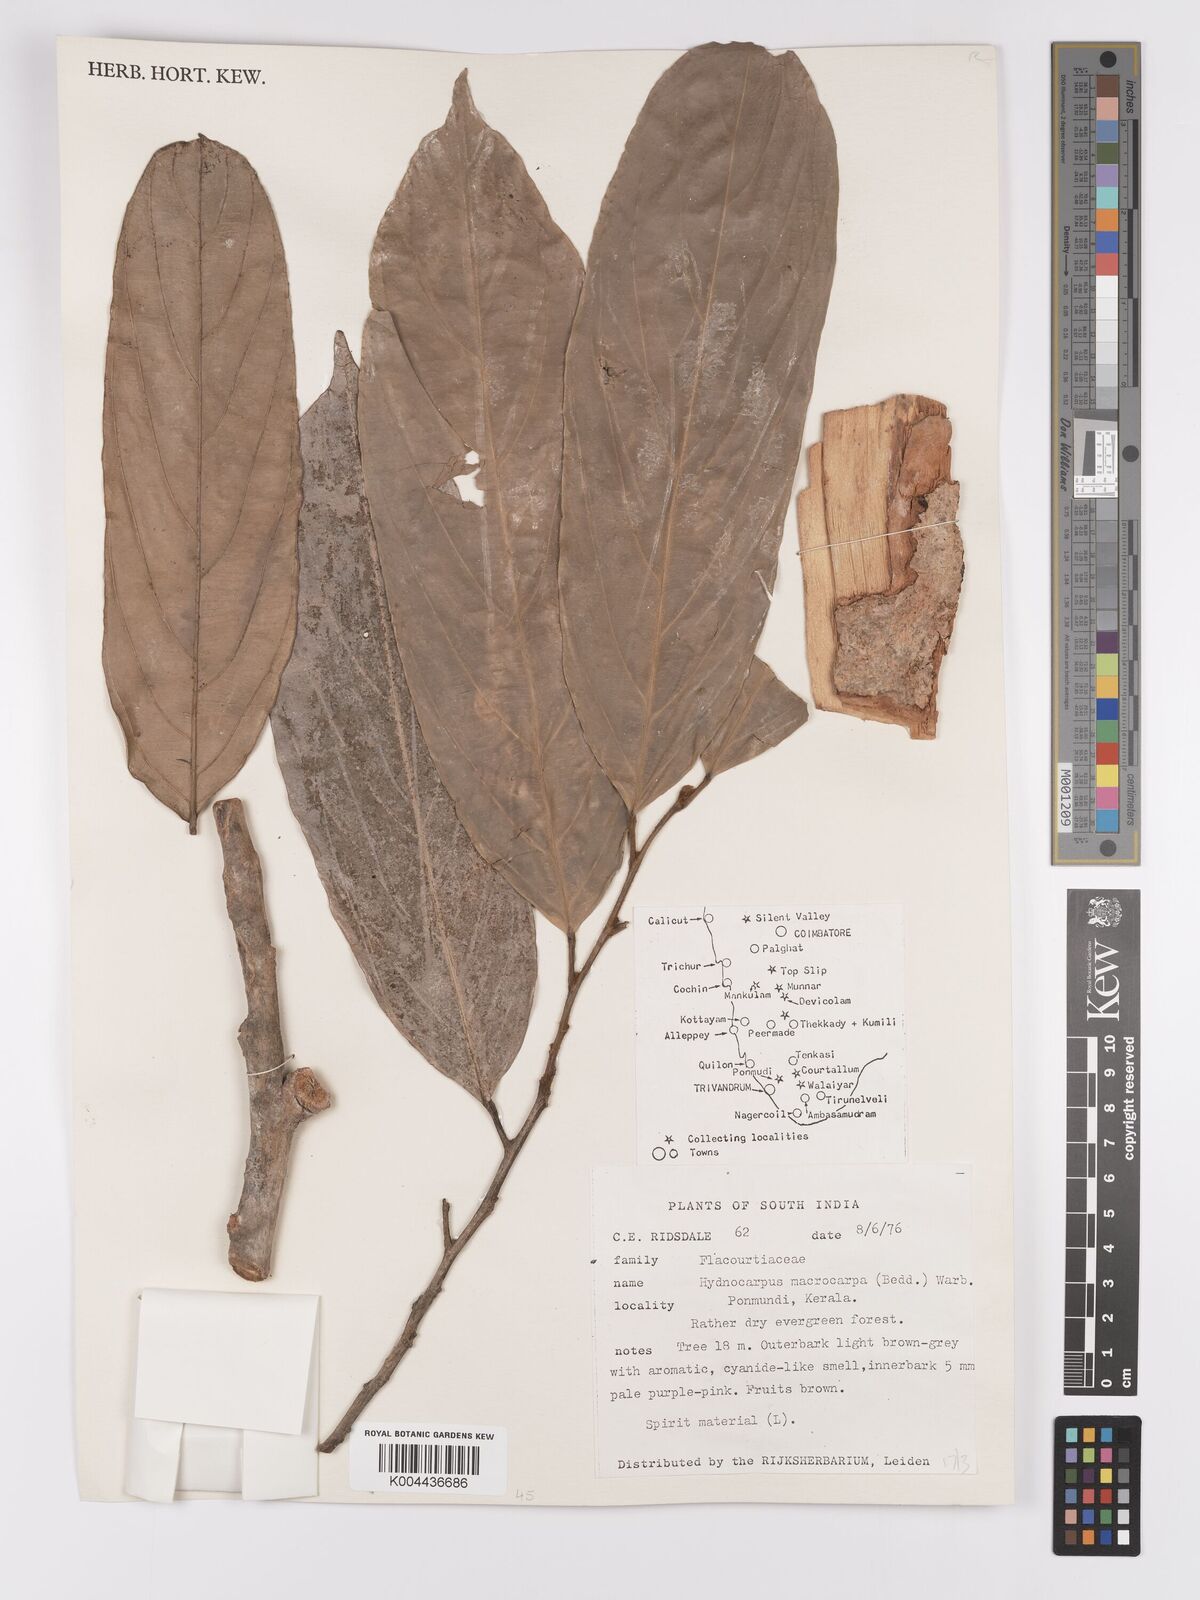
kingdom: Plantae
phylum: Tracheophyta
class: Magnoliopsida
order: Malpighiales
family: Achariaceae
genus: Hydnocarpus
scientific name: Hydnocarpus macrocarpus
